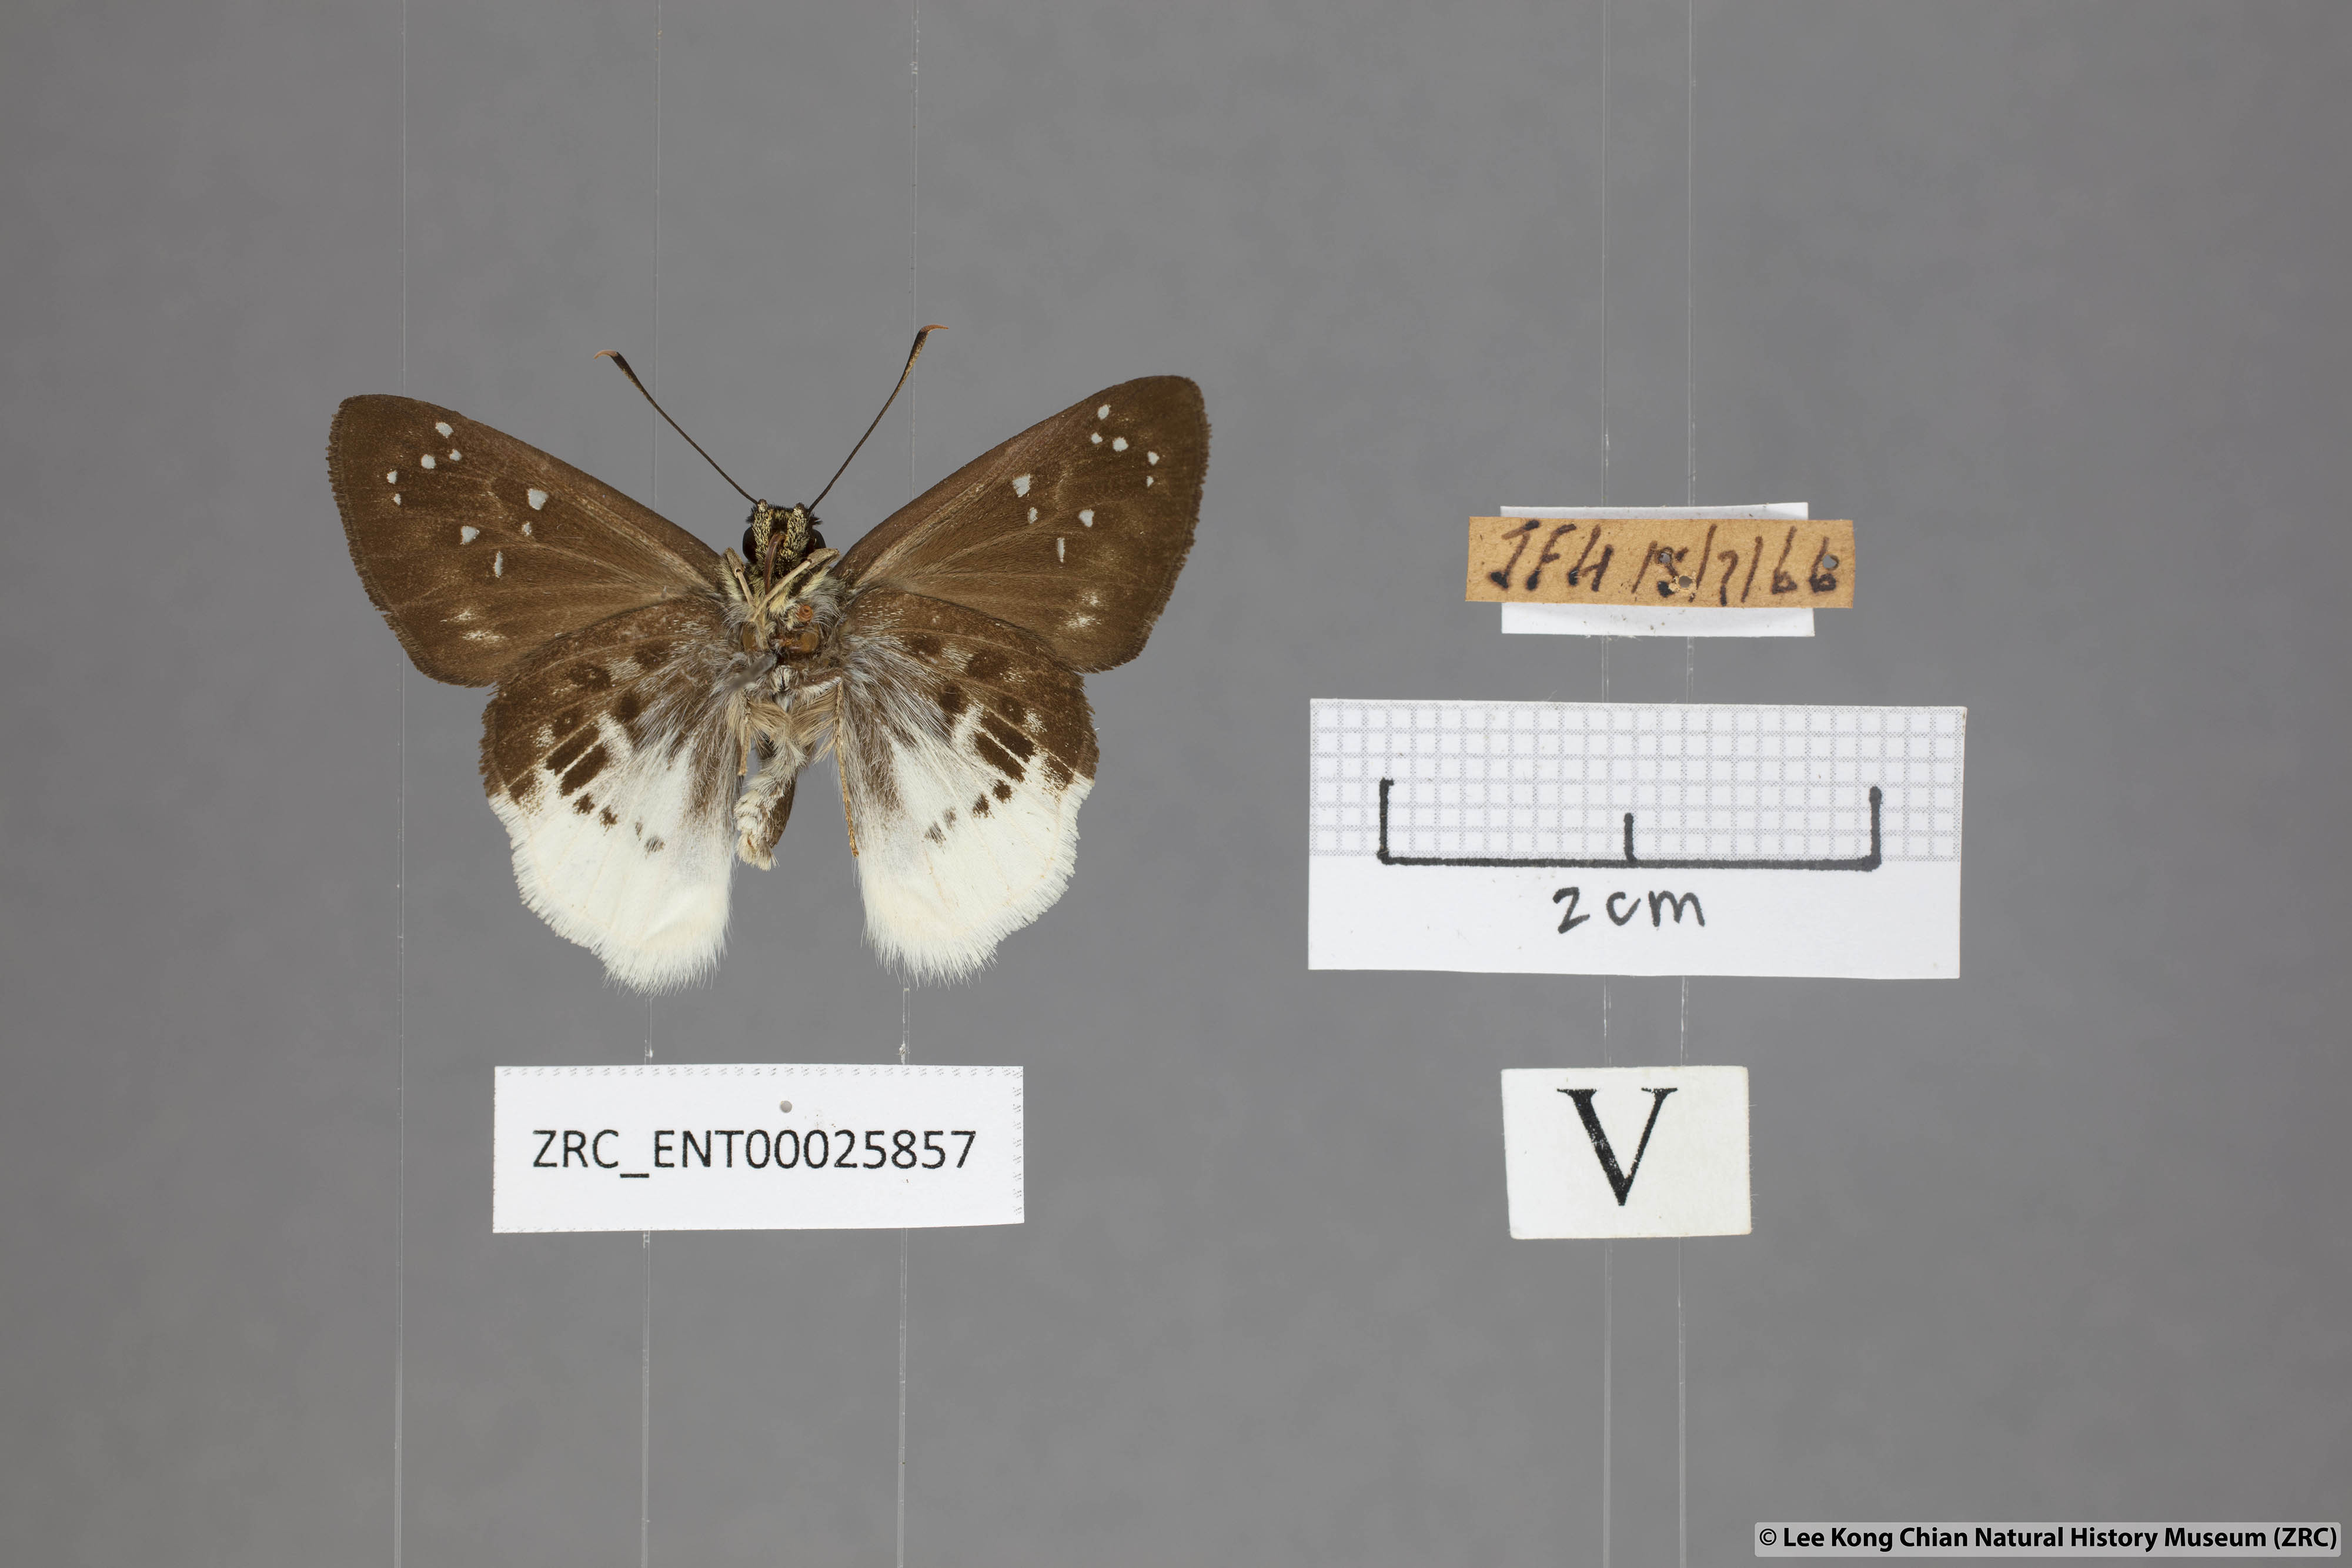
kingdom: Animalia
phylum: Arthropoda
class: Insecta
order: Lepidoptera
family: Hesperiidae
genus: Darpa
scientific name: Darpa pterica
